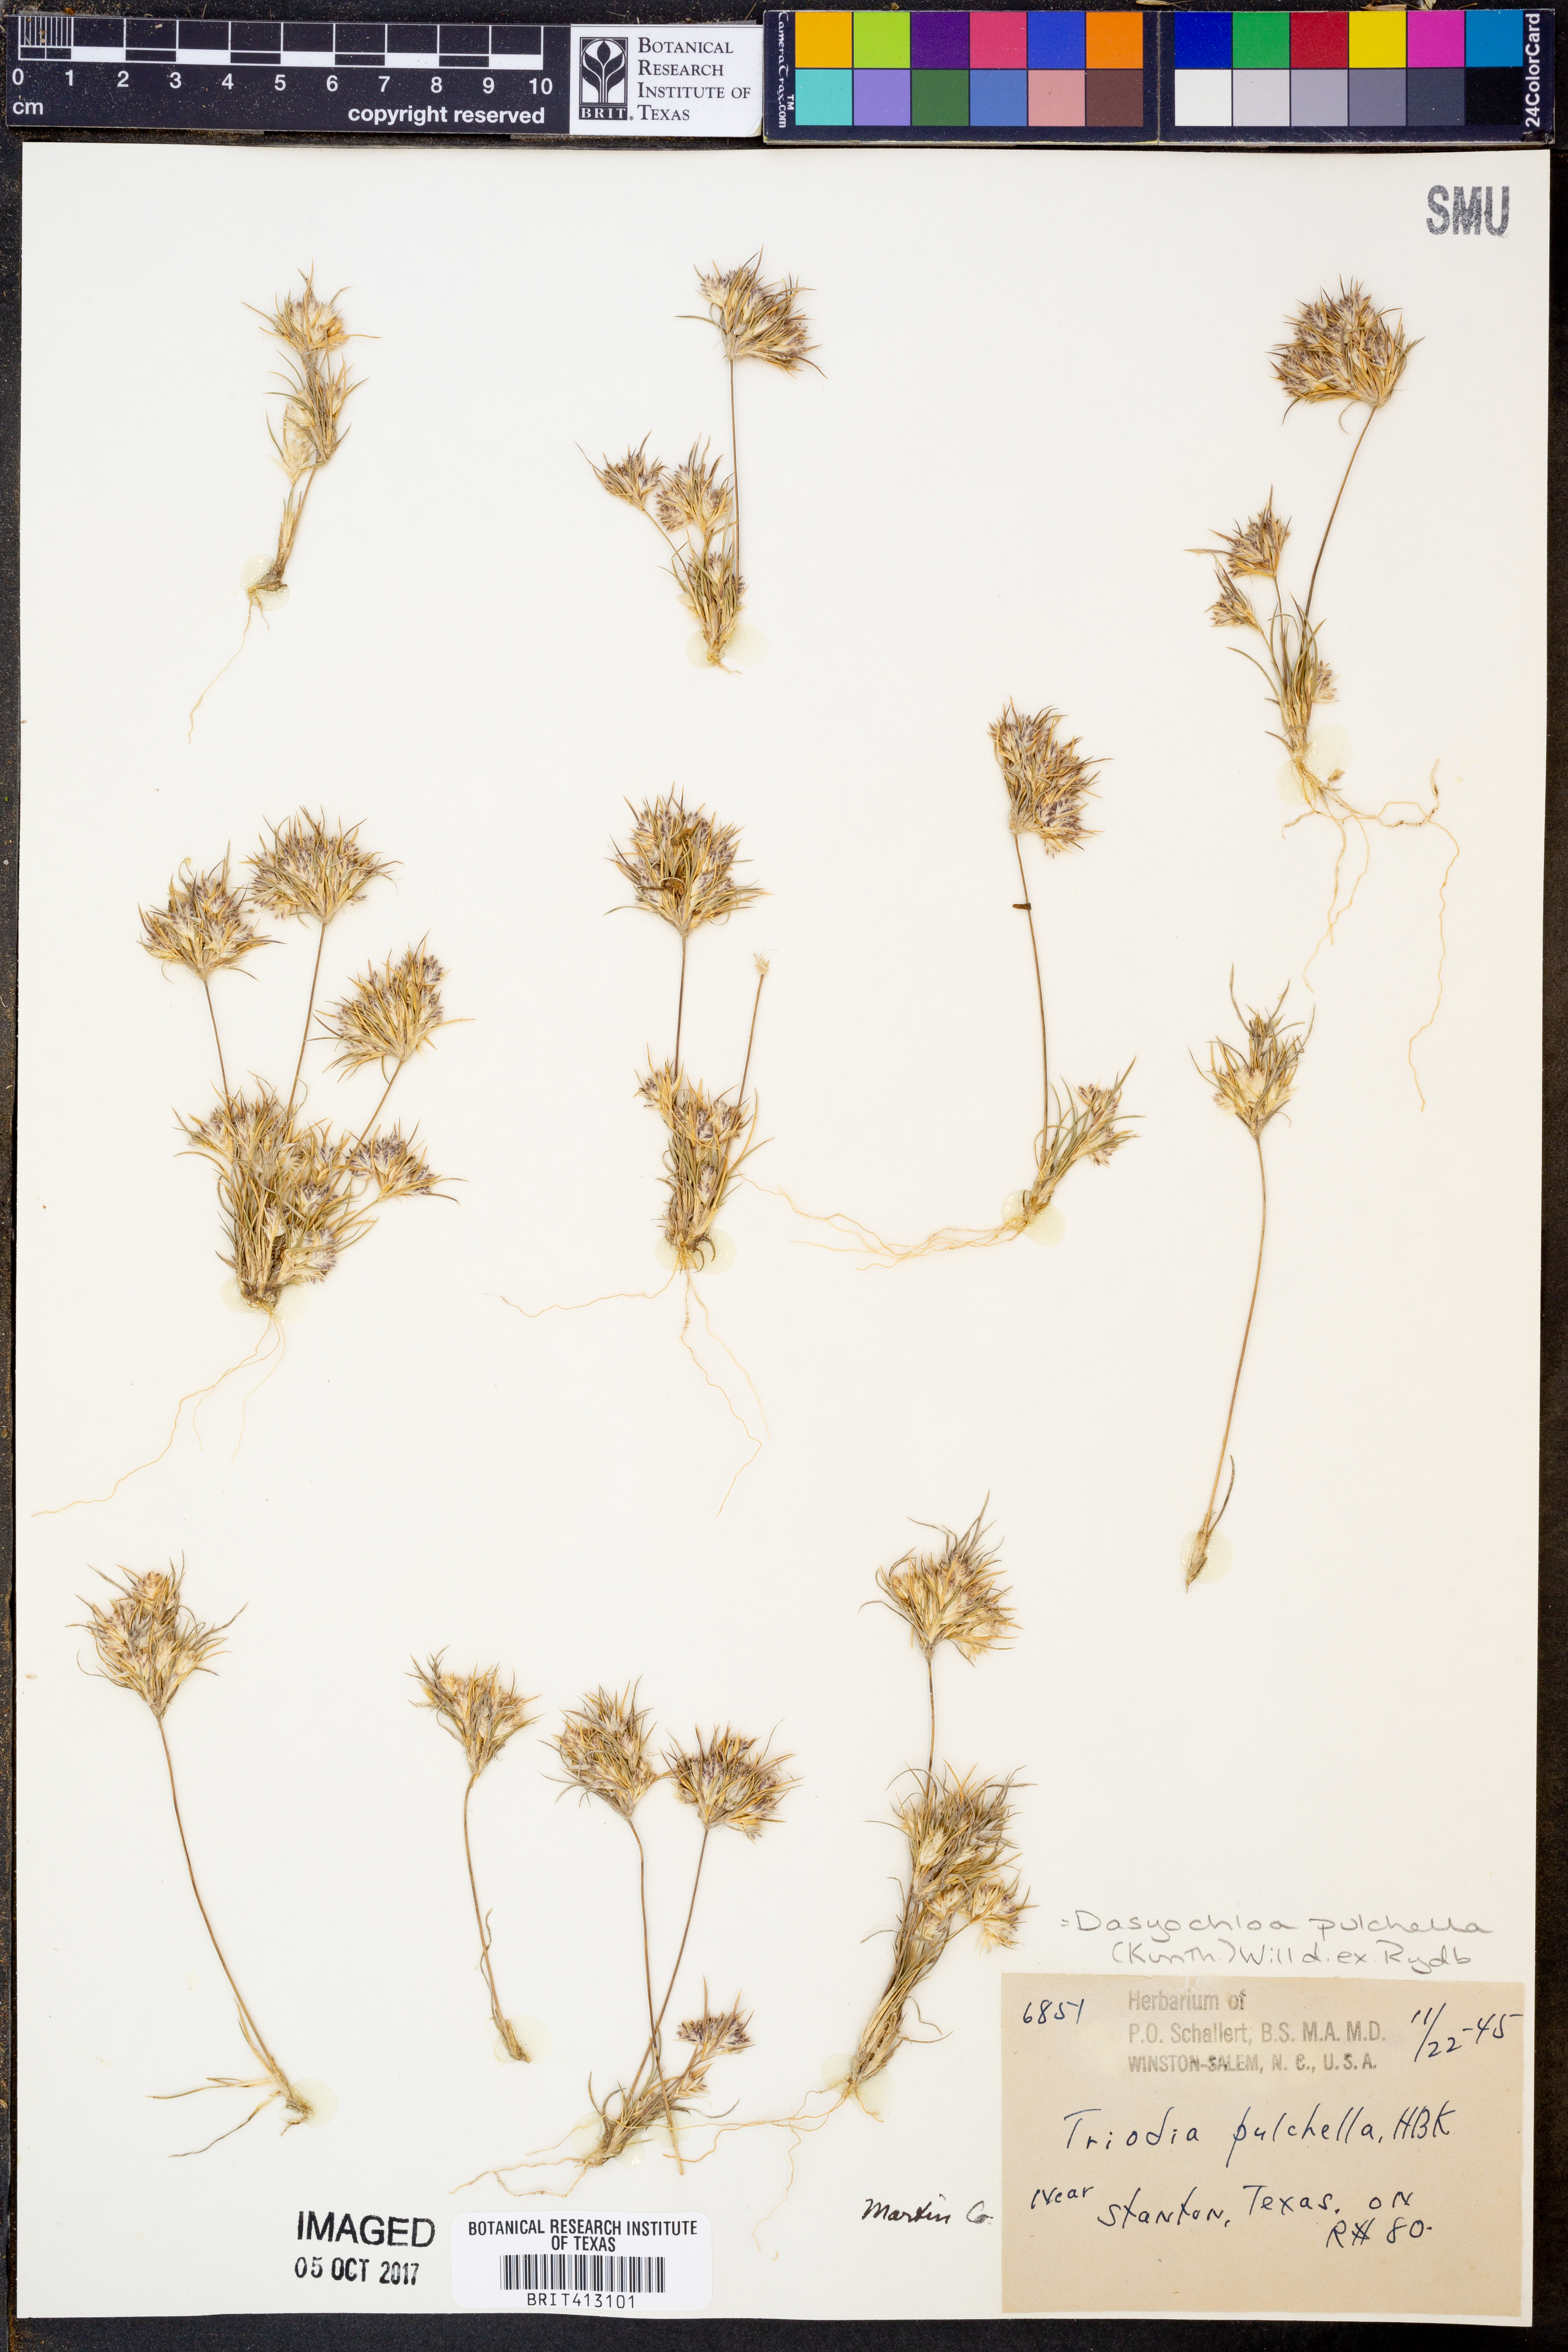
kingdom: Plantae
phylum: Tracheophyta
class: Liliopsida
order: Poales
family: Poaceae
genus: Munroa
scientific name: Munroa pulchella
